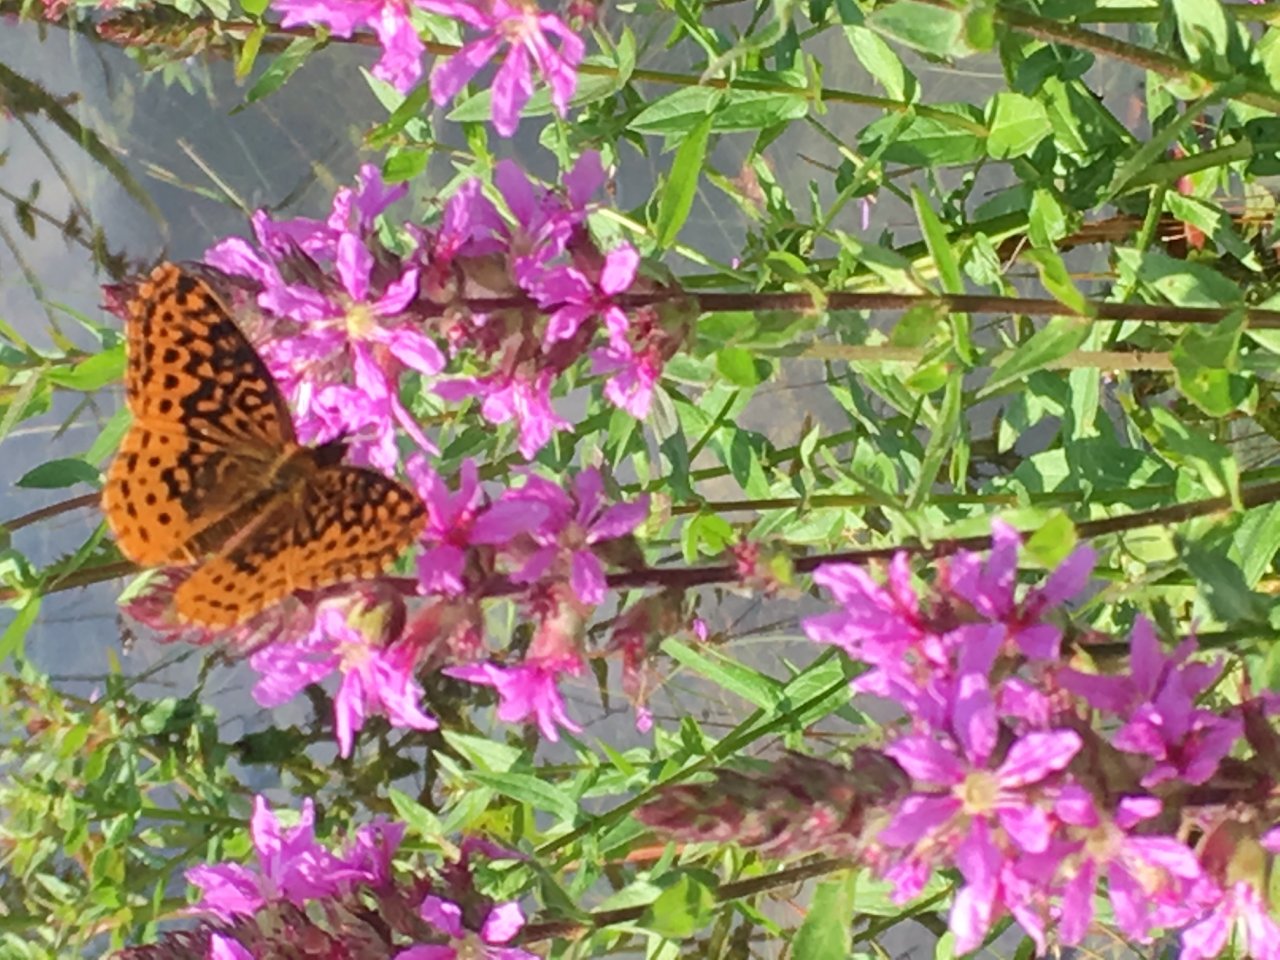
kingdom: Animalia
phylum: Arthropoda
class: Insecta
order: Lepidoptera
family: Nymphalidae
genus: Clossiana
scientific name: Clossiana toddi
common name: Meadow Fritillary
